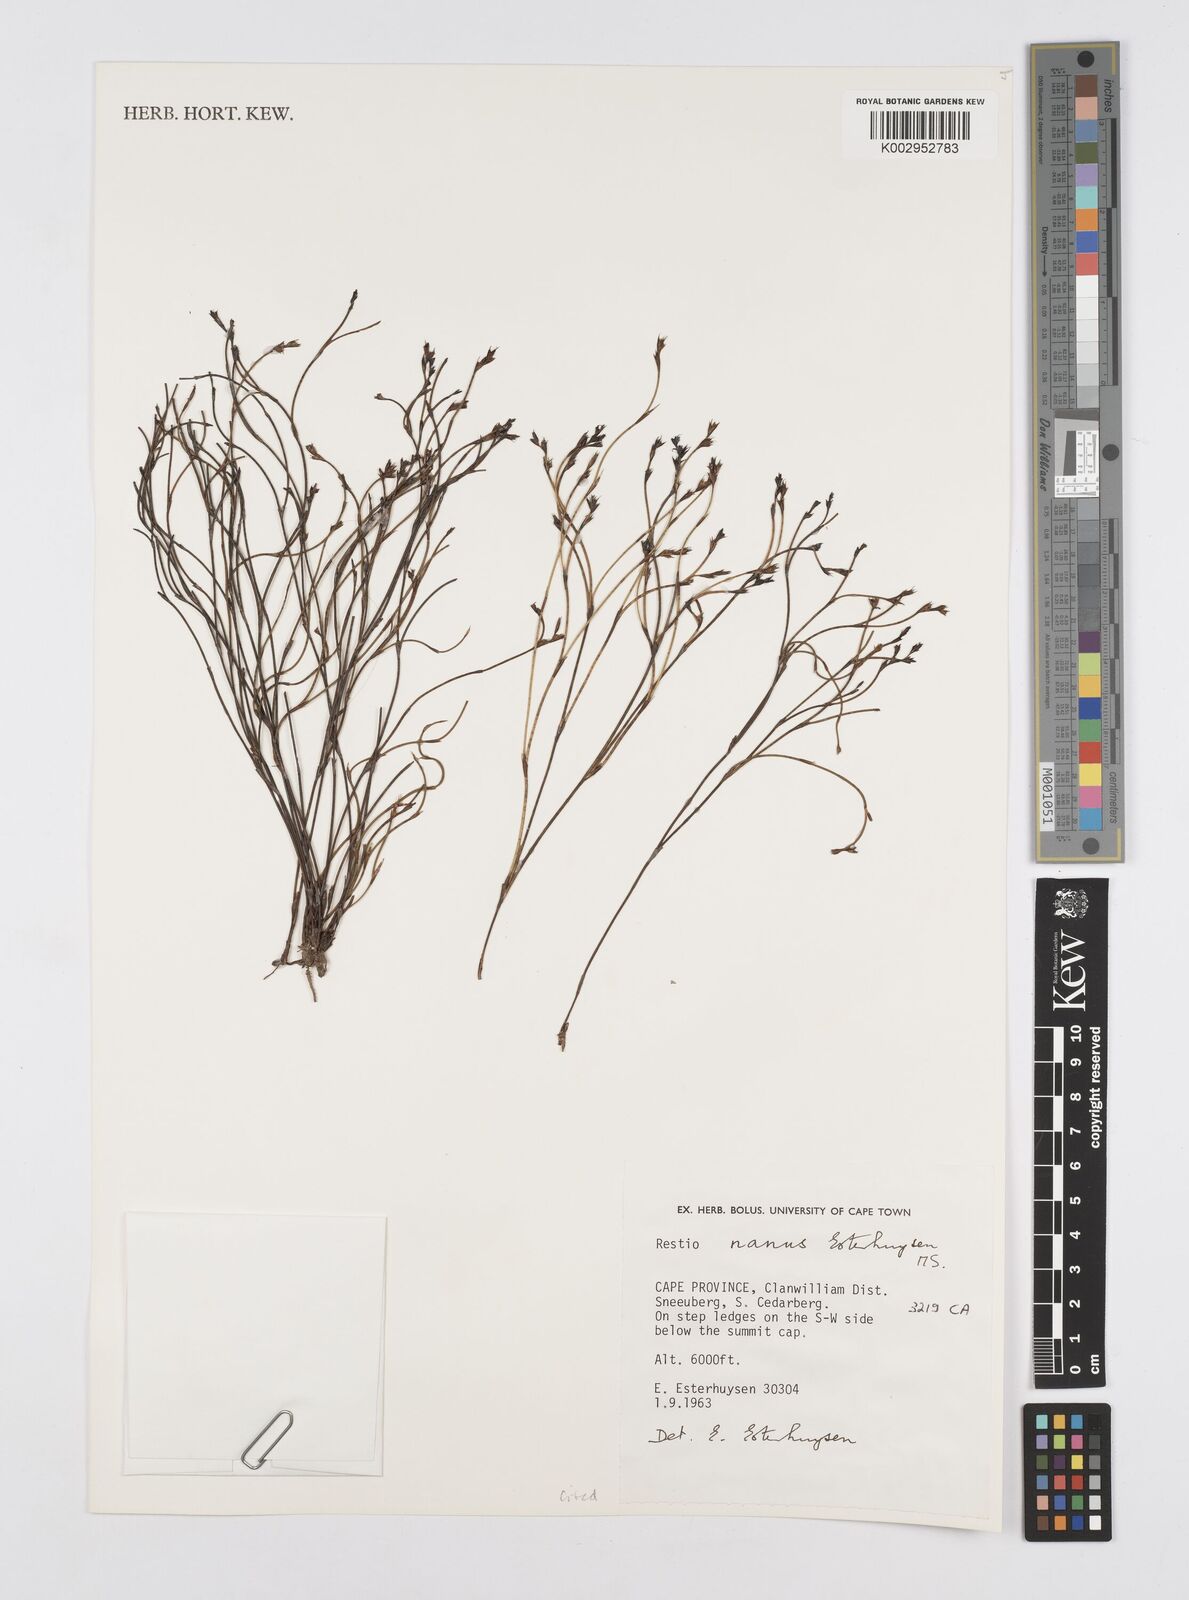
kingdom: Plantae
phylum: Tracheophyta
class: Liliopsida
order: Poales
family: Restionaceae
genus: Restio
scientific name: Restio nanus
